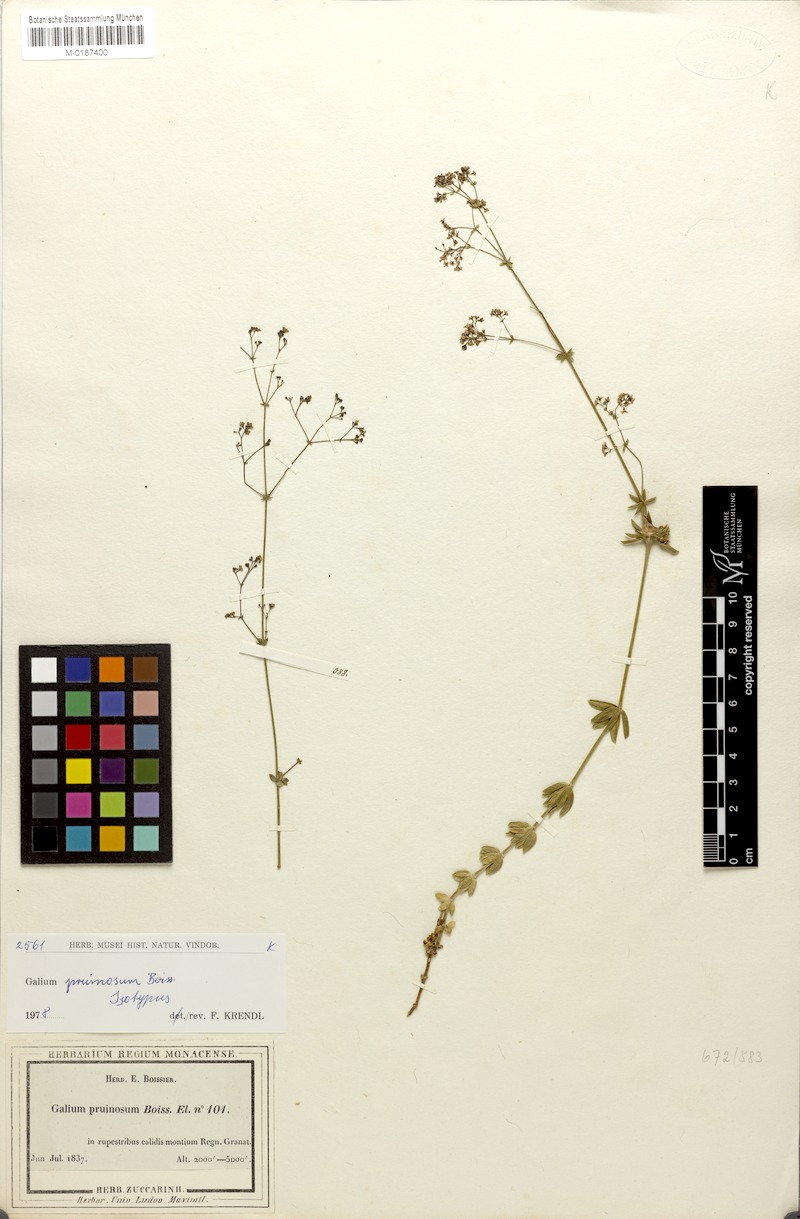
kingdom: Plantae
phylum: Tracheophyta
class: Magnoliopsida
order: Gentianales
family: Rubiaceae
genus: Galium
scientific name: Galium pruinosum
